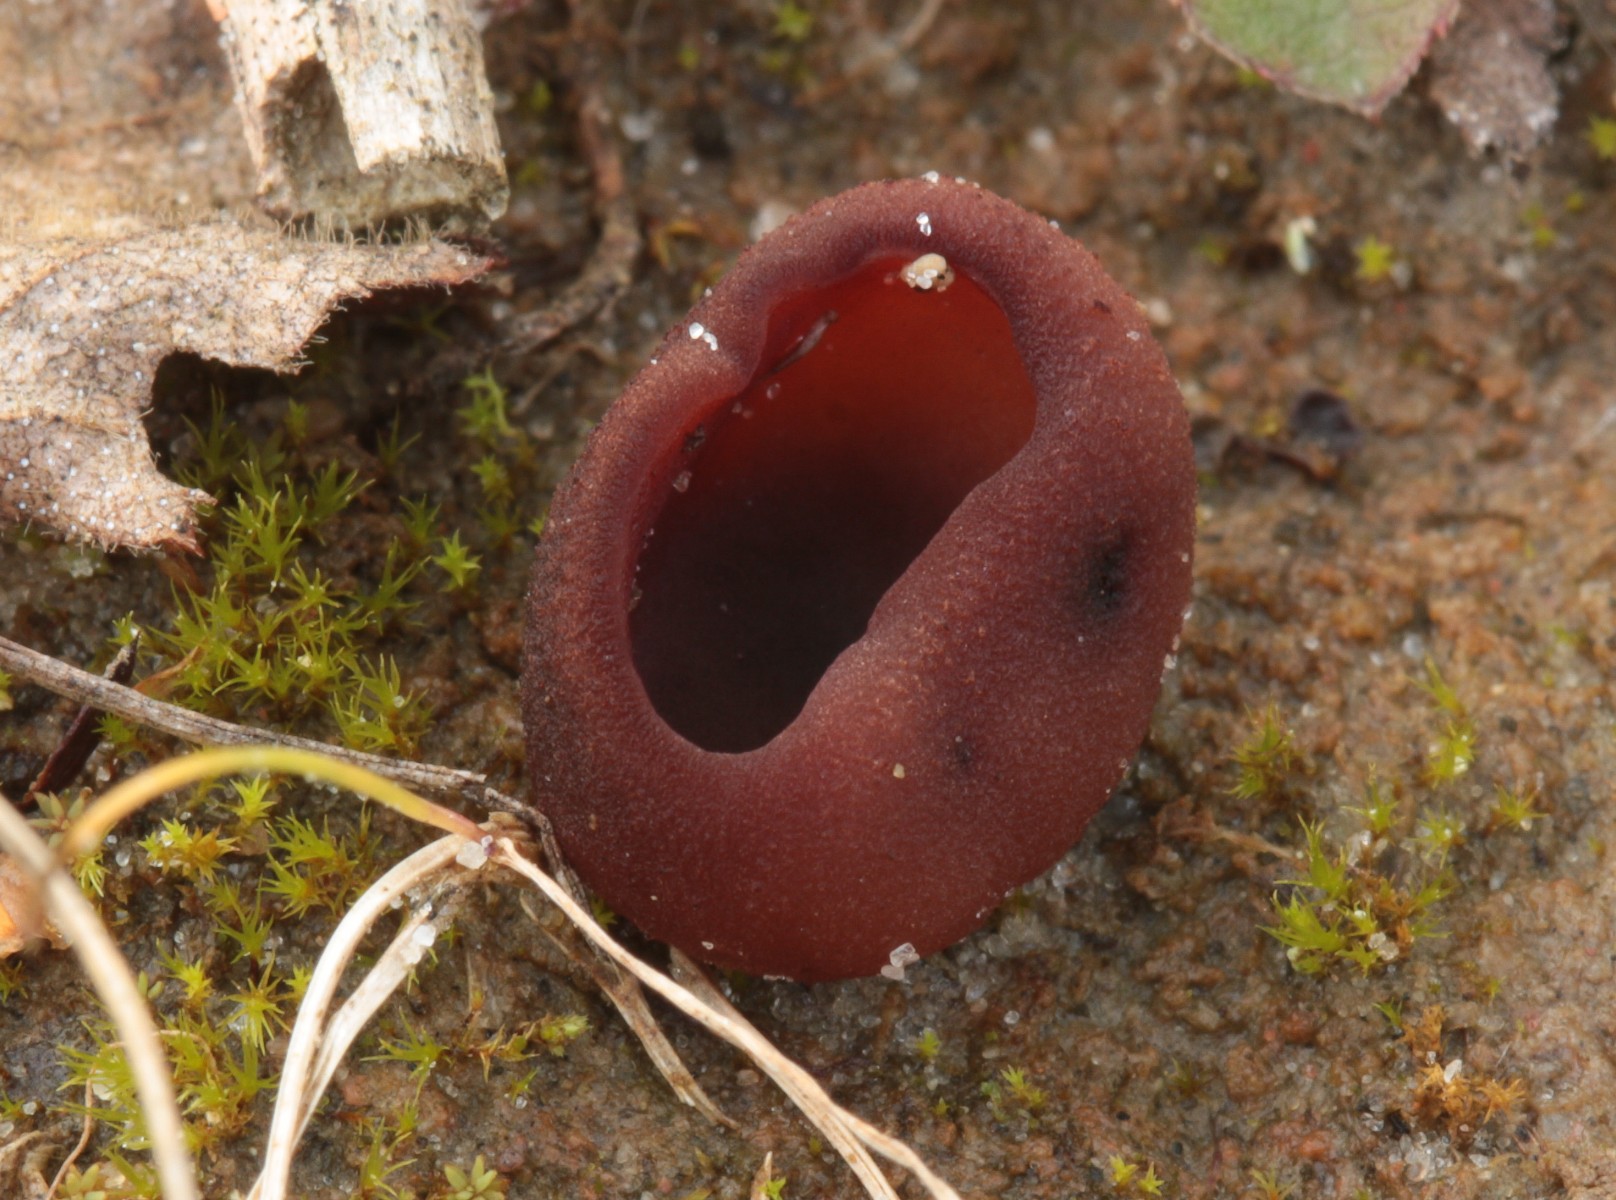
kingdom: Fungi
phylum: Ascomycota
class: Pezizomycetes
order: Pezizales
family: Pezizaceae
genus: Legaliana
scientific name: Legaliana badia
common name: leverbrun bægersvamp
